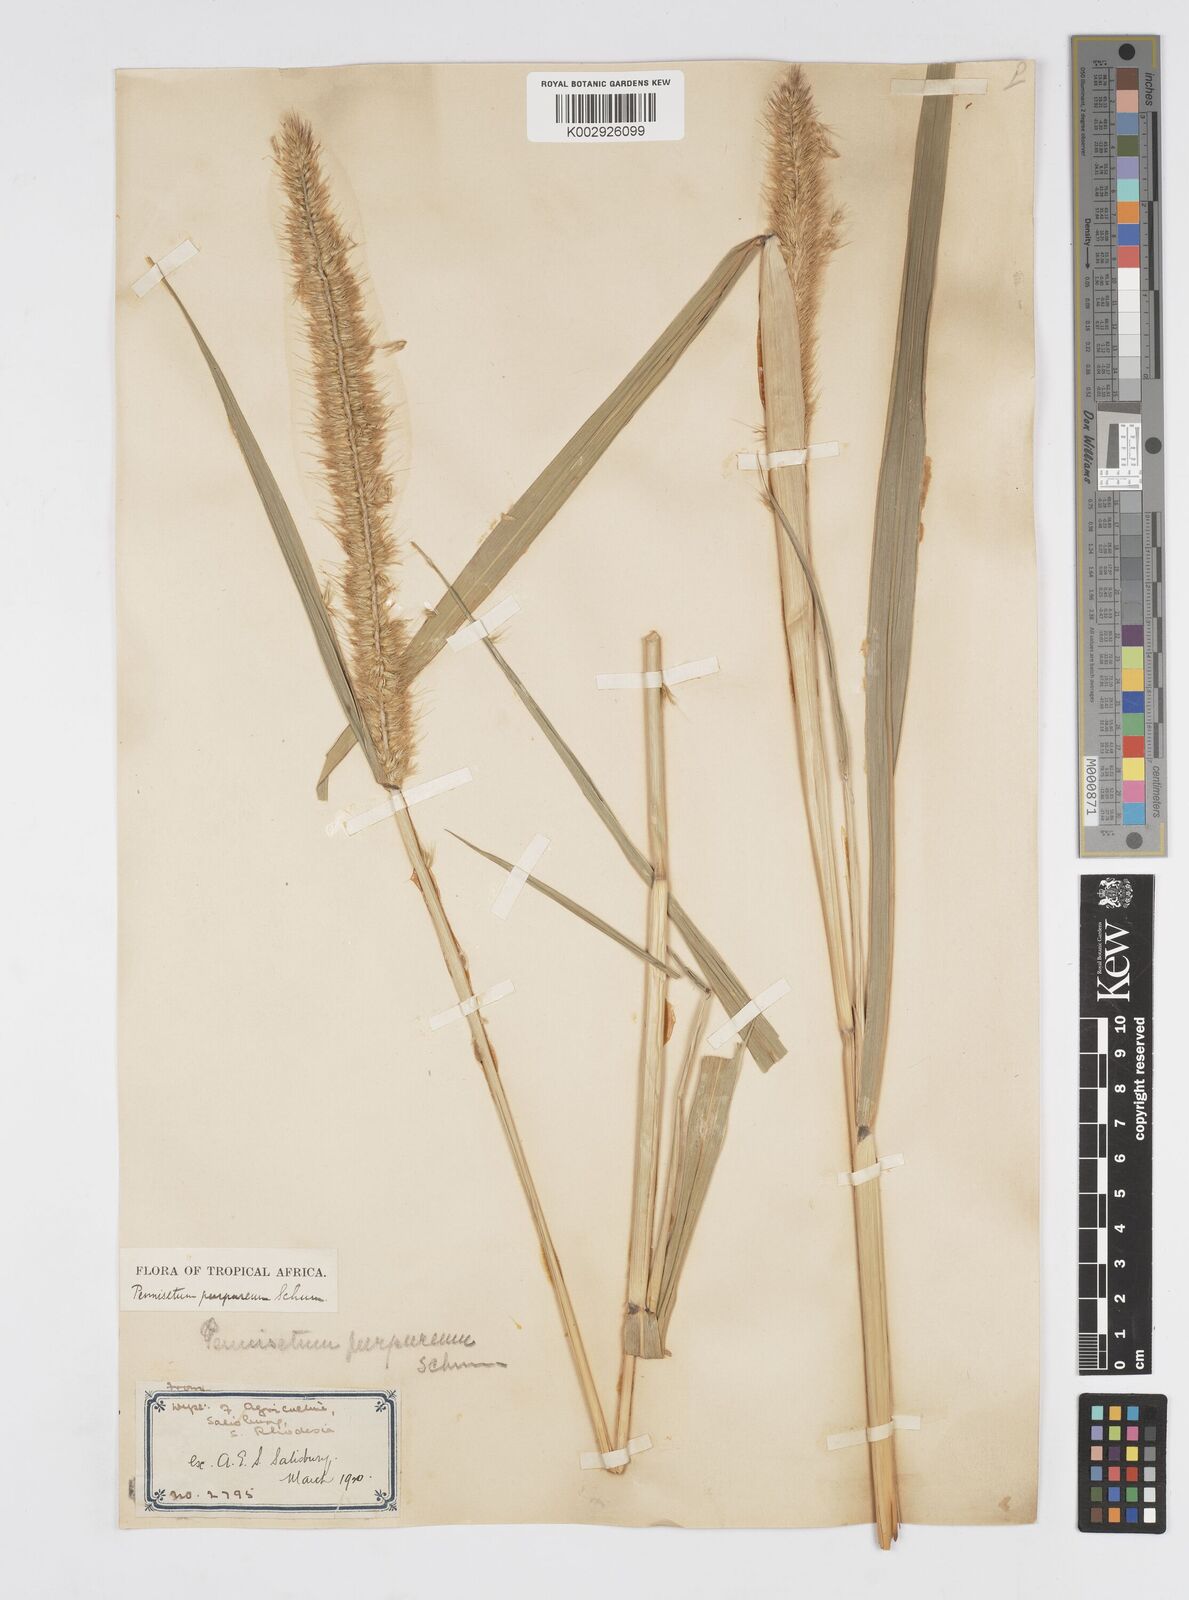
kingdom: Plantae
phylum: Tracheophyta
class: Liliopsida
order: Poales
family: Poaceae
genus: Cenchrus
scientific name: Cenchrus purpureus
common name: Elephant grass
